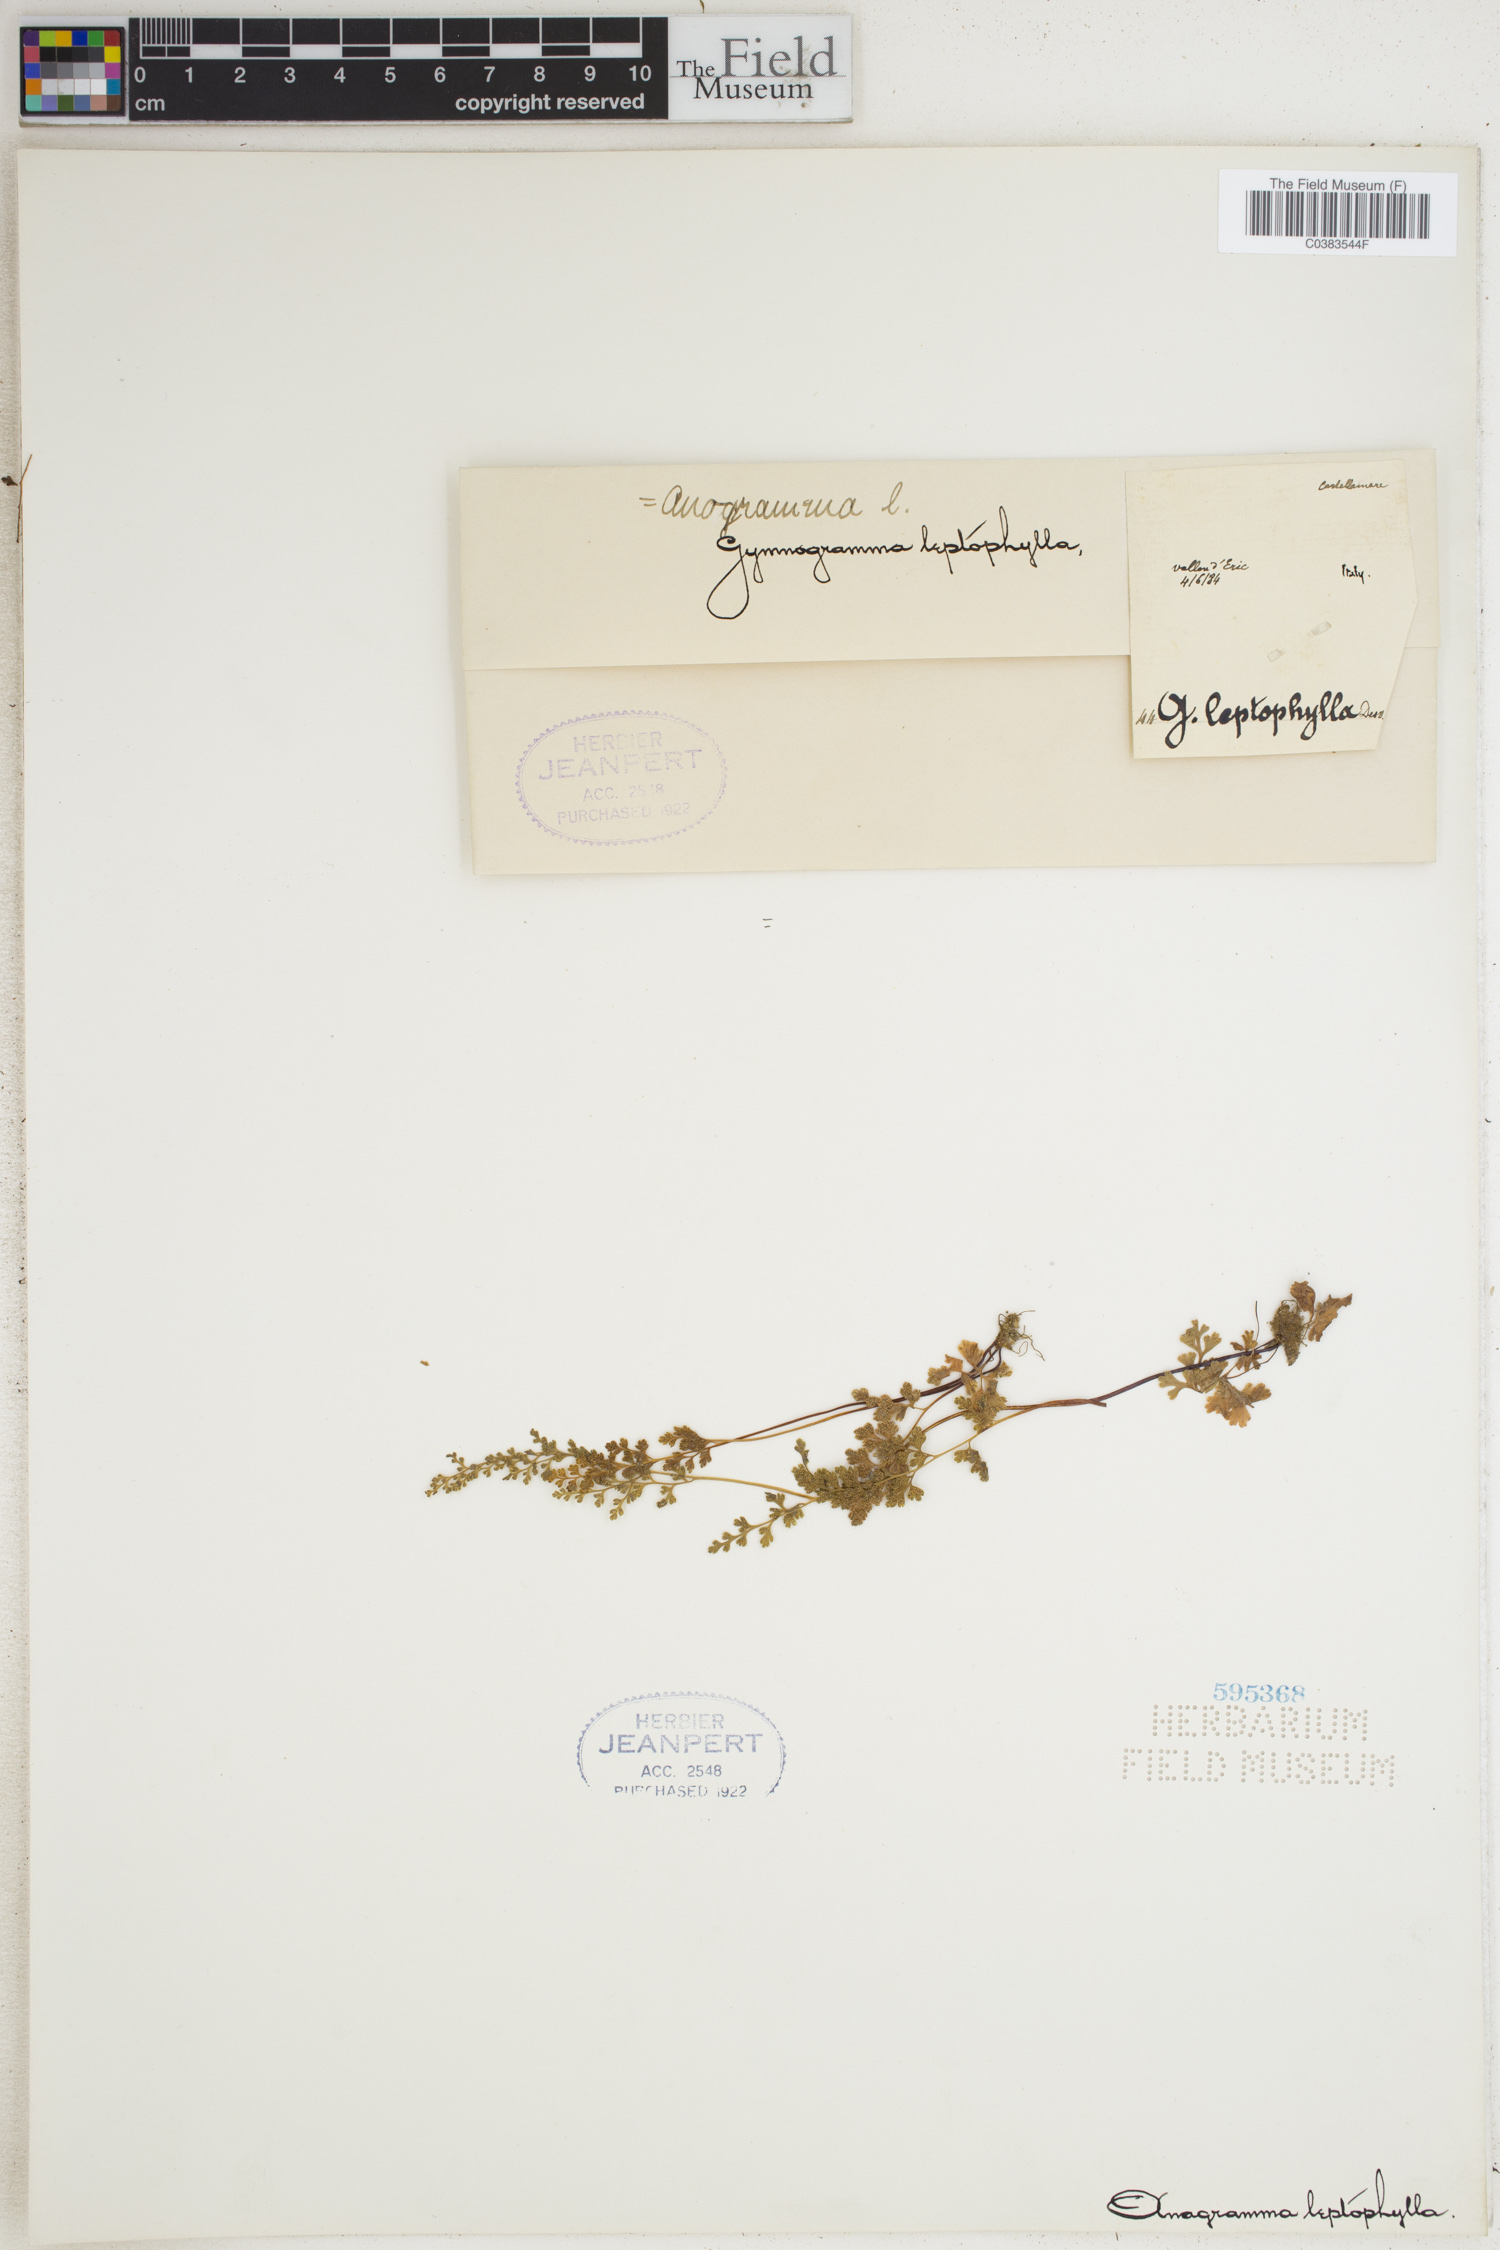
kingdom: Plantae
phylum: Tracheophyta
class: Polypodiopsida
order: Polypodiales
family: Pteridaceae
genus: Anogramma
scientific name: Anogramma leptophylla
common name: Jersey fern
